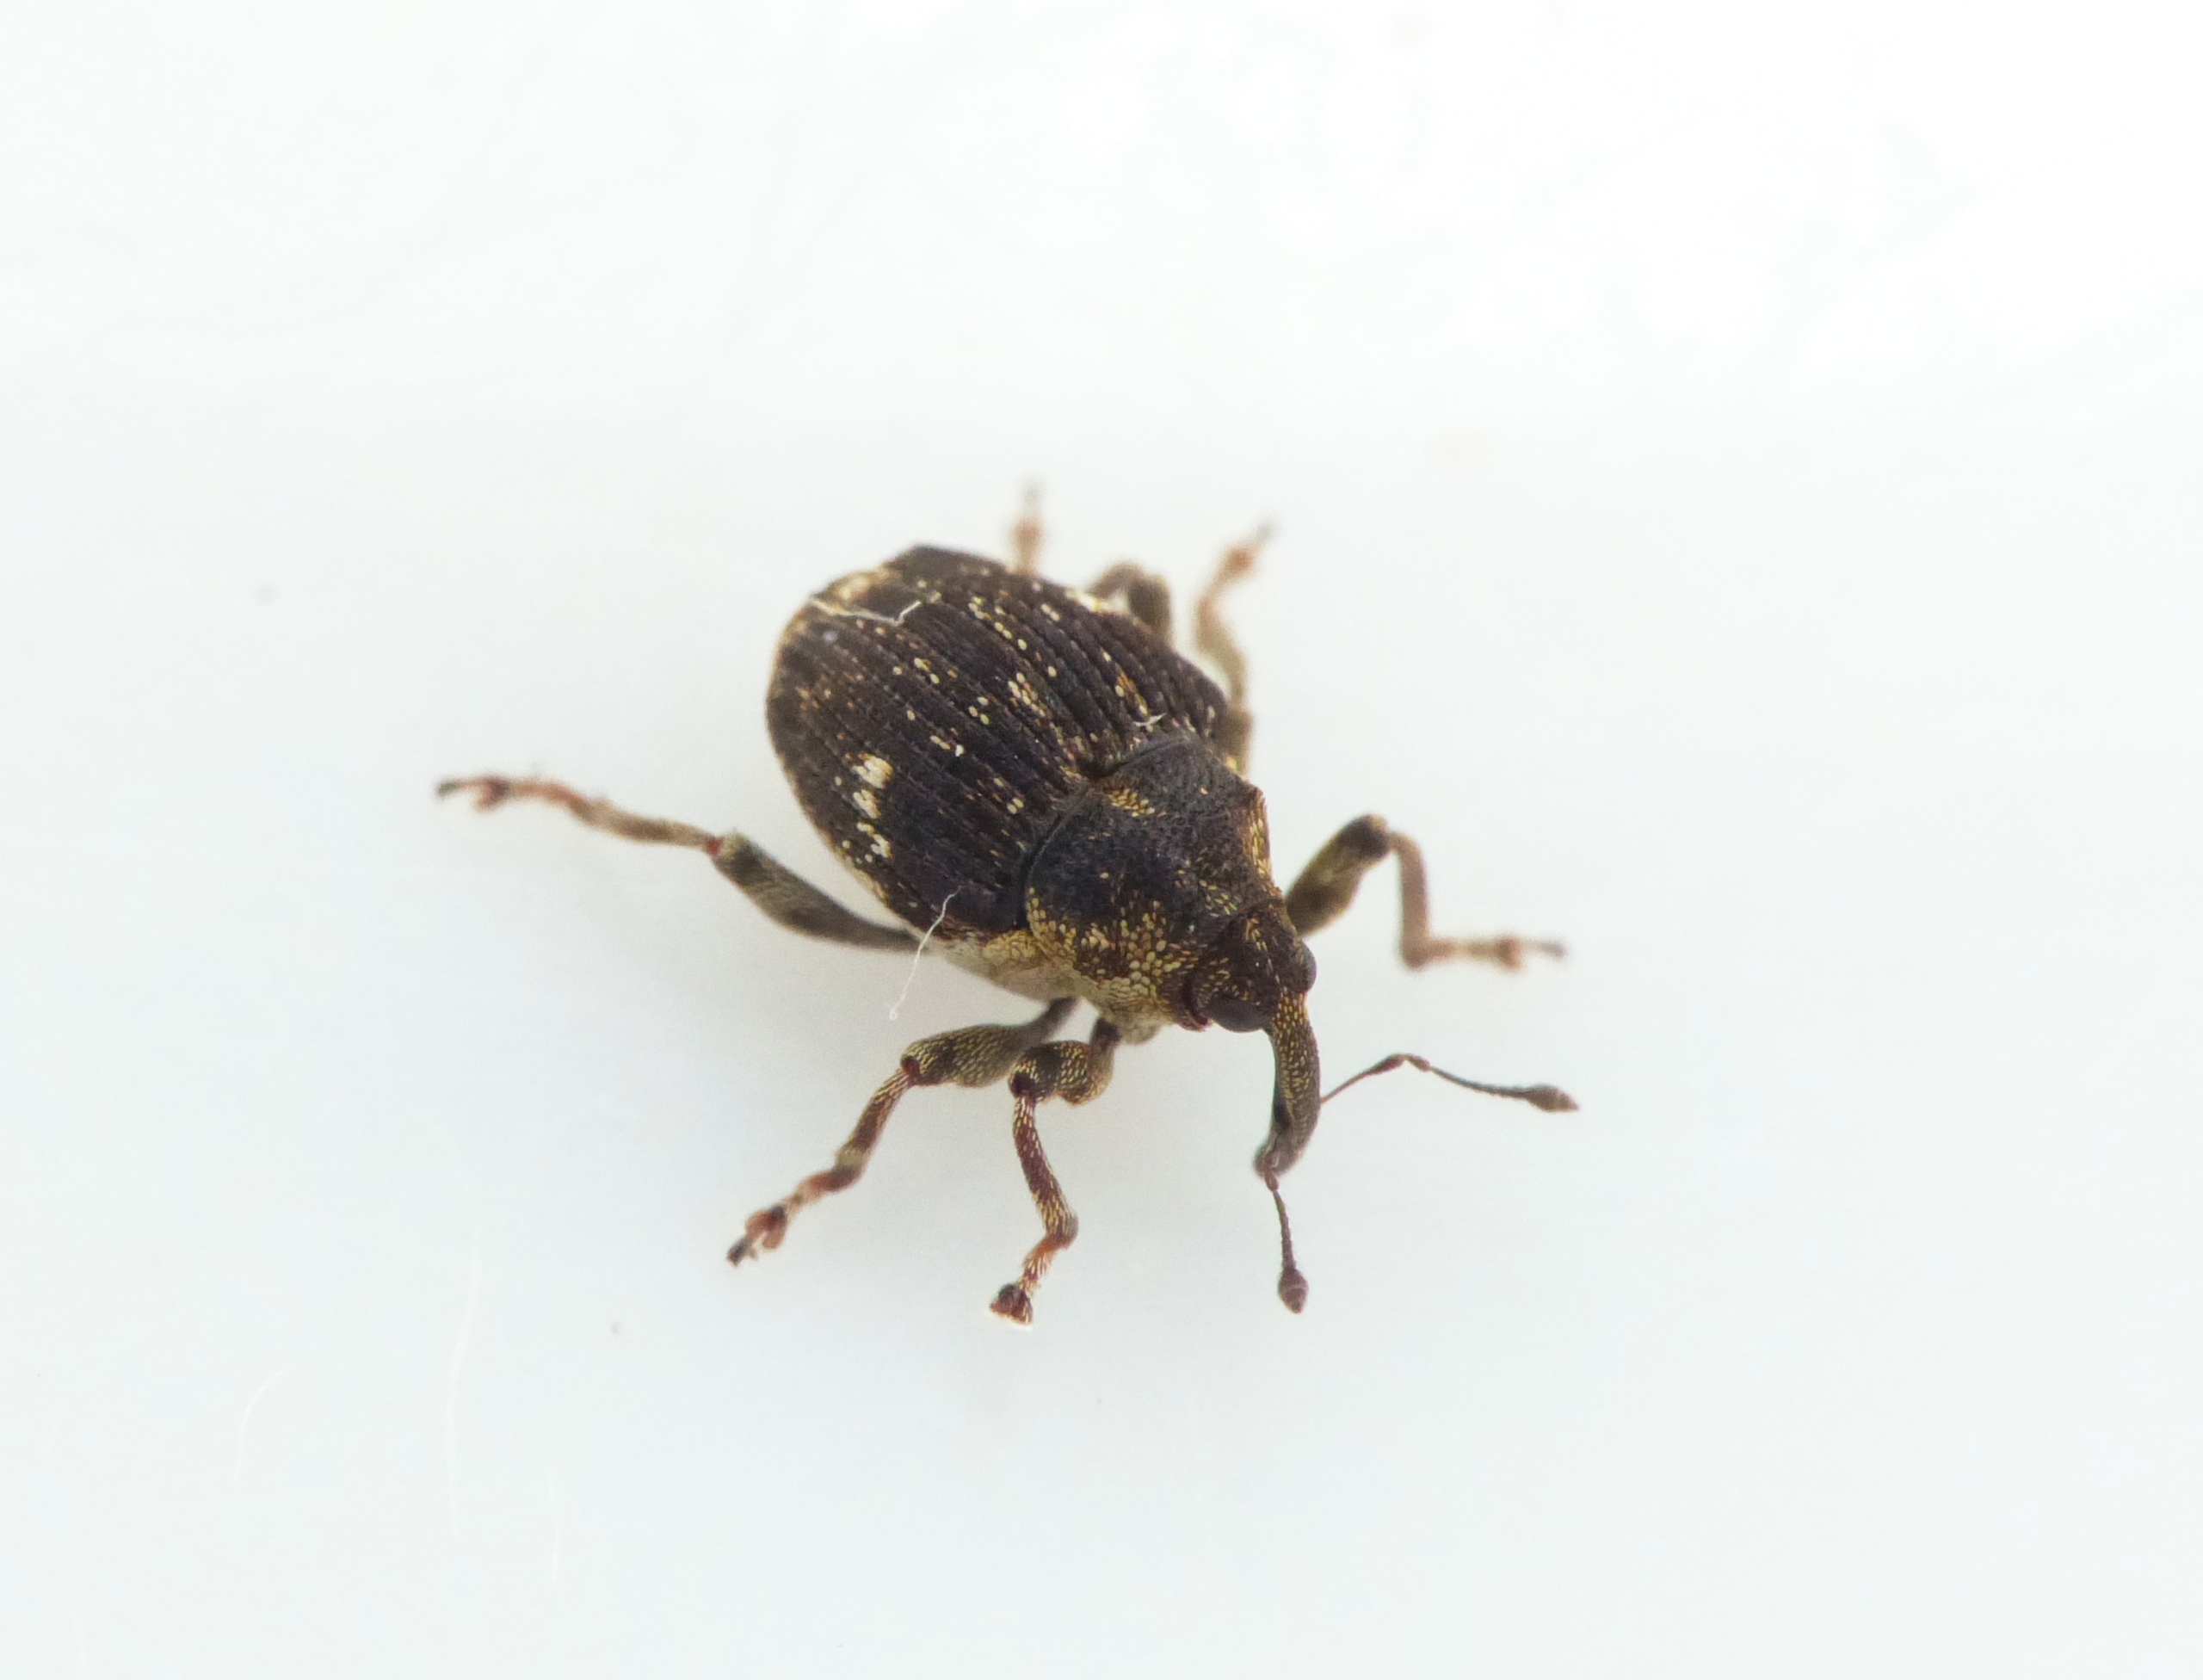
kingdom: Animalia
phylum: Arthropoda
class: Insecta
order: Coleoptera
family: Curculionidae
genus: Nedyus
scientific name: Nedyus quadrimaculatus
